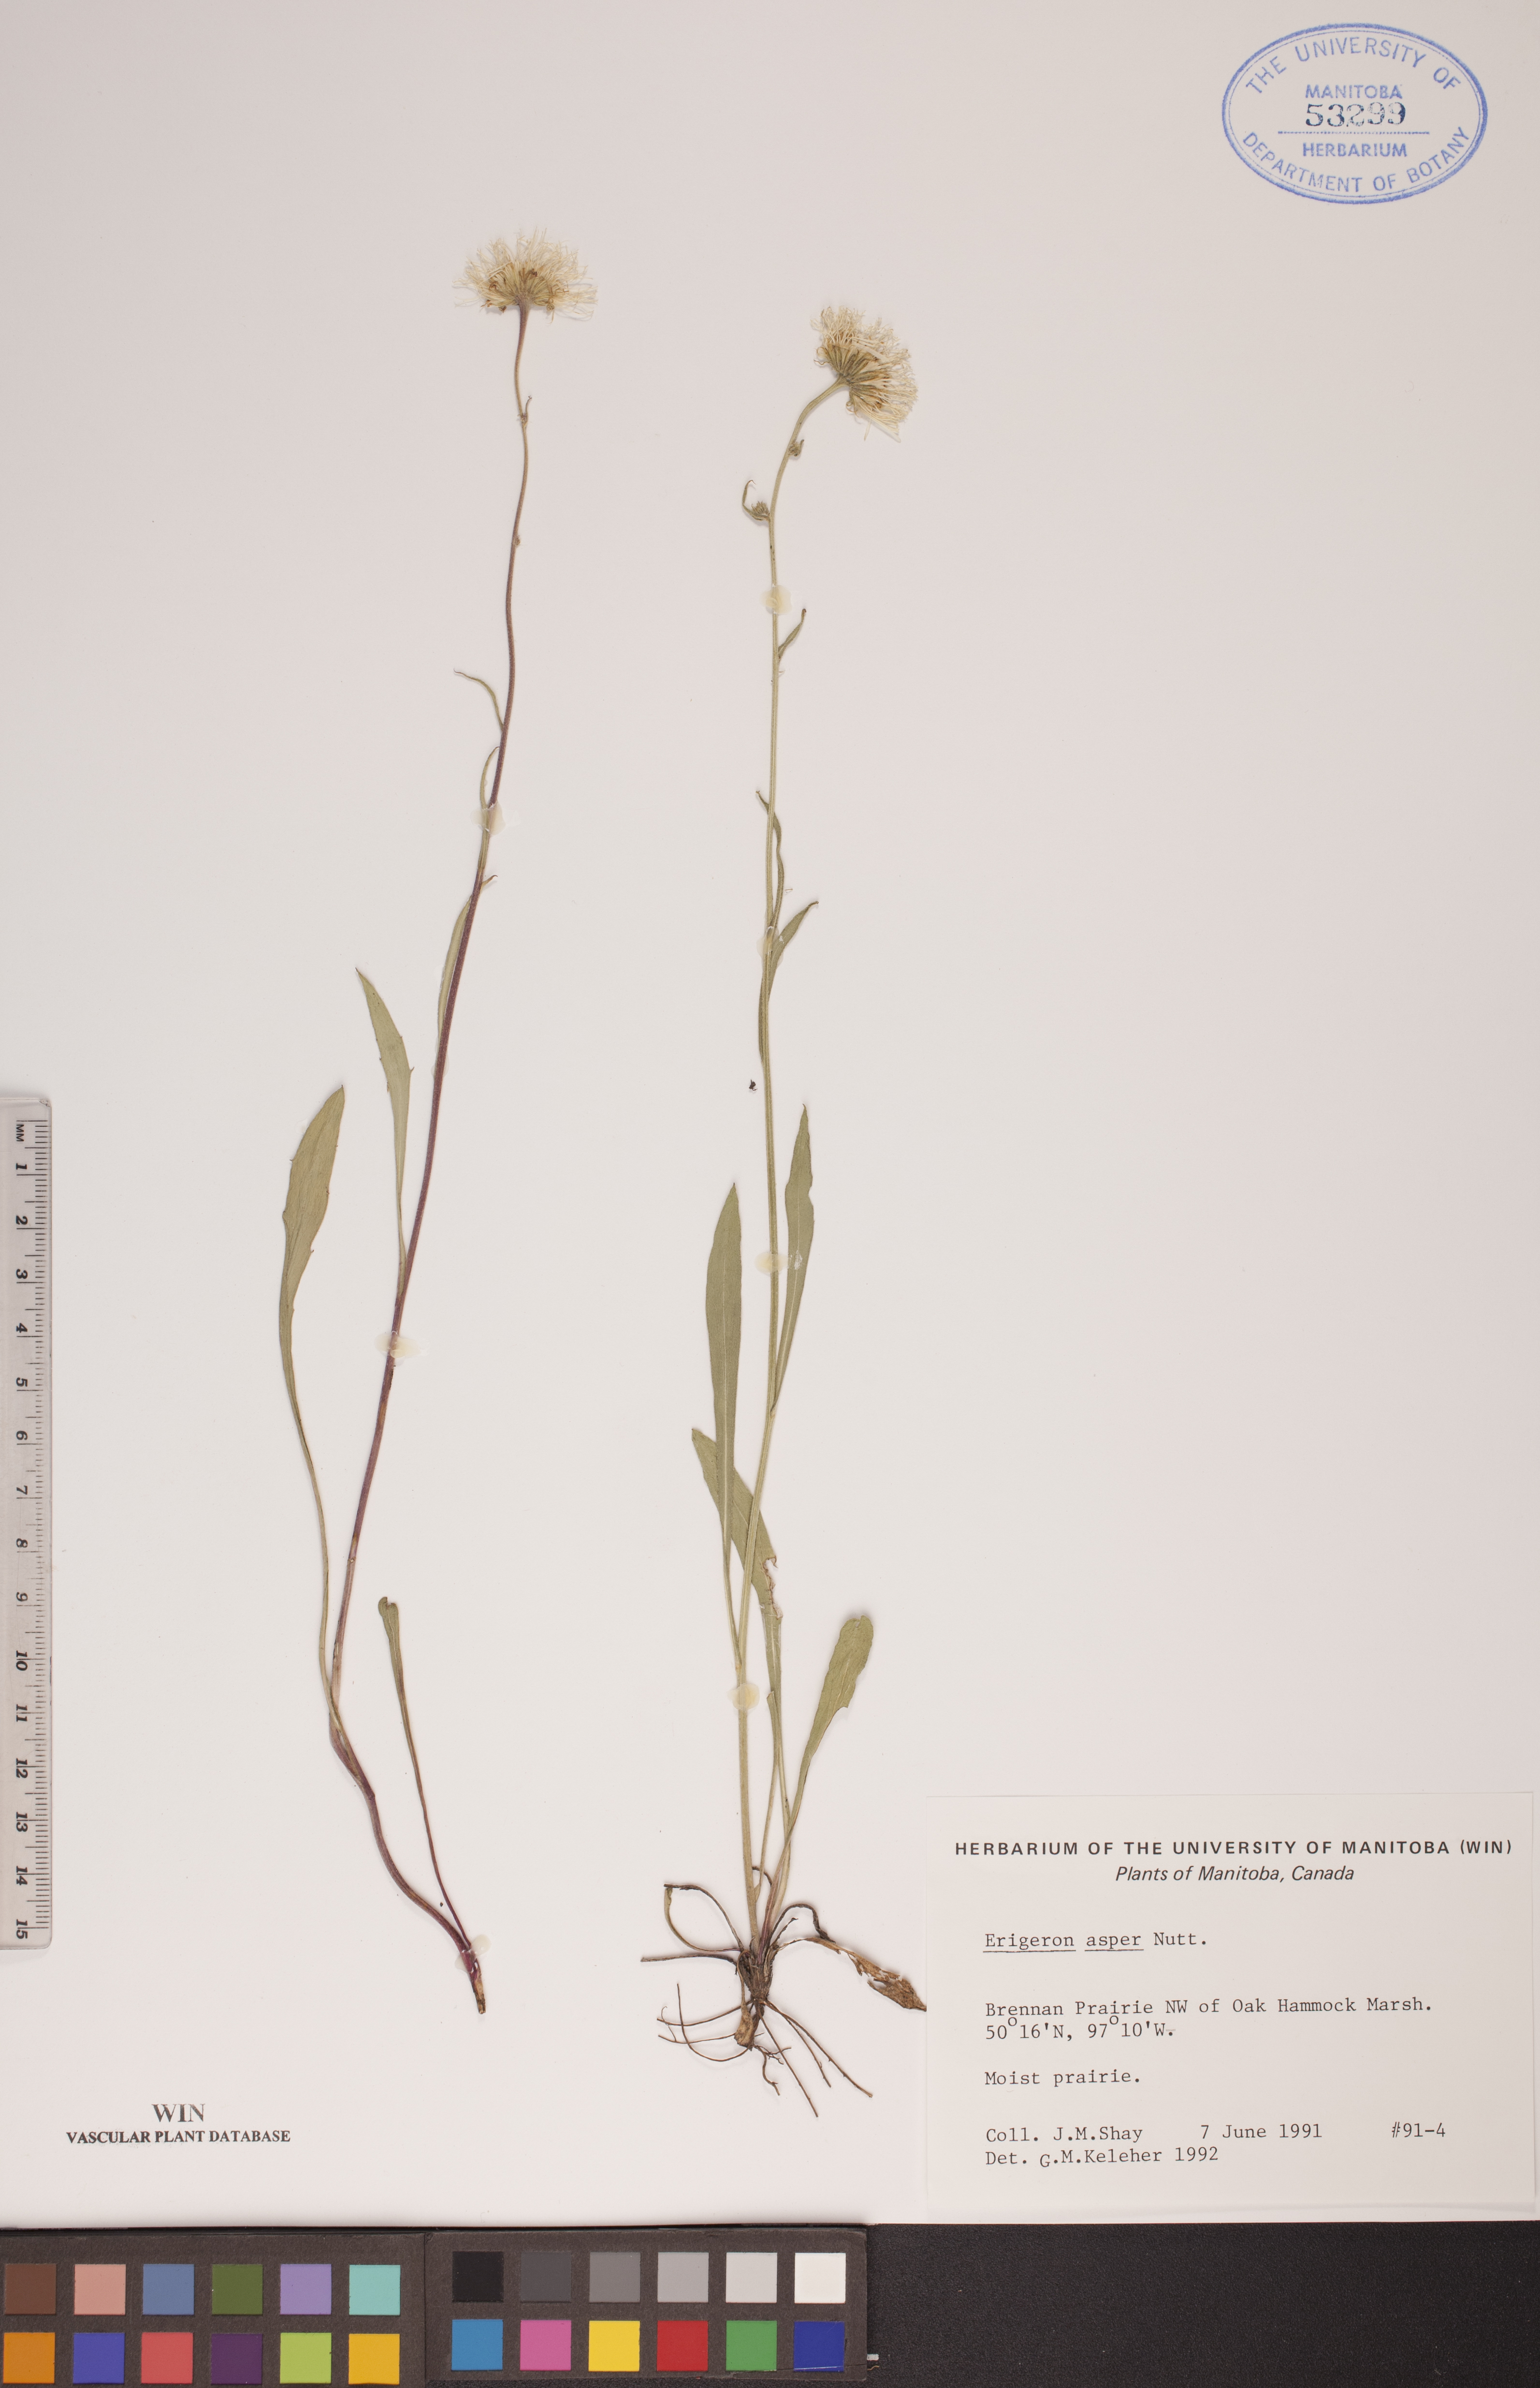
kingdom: Plantae
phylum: Tracheophyta
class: Magnoliopsida
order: Asterales
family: Asteraceae
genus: Erigeron
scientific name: Erigeron glabellus
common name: Smooth fleabane
